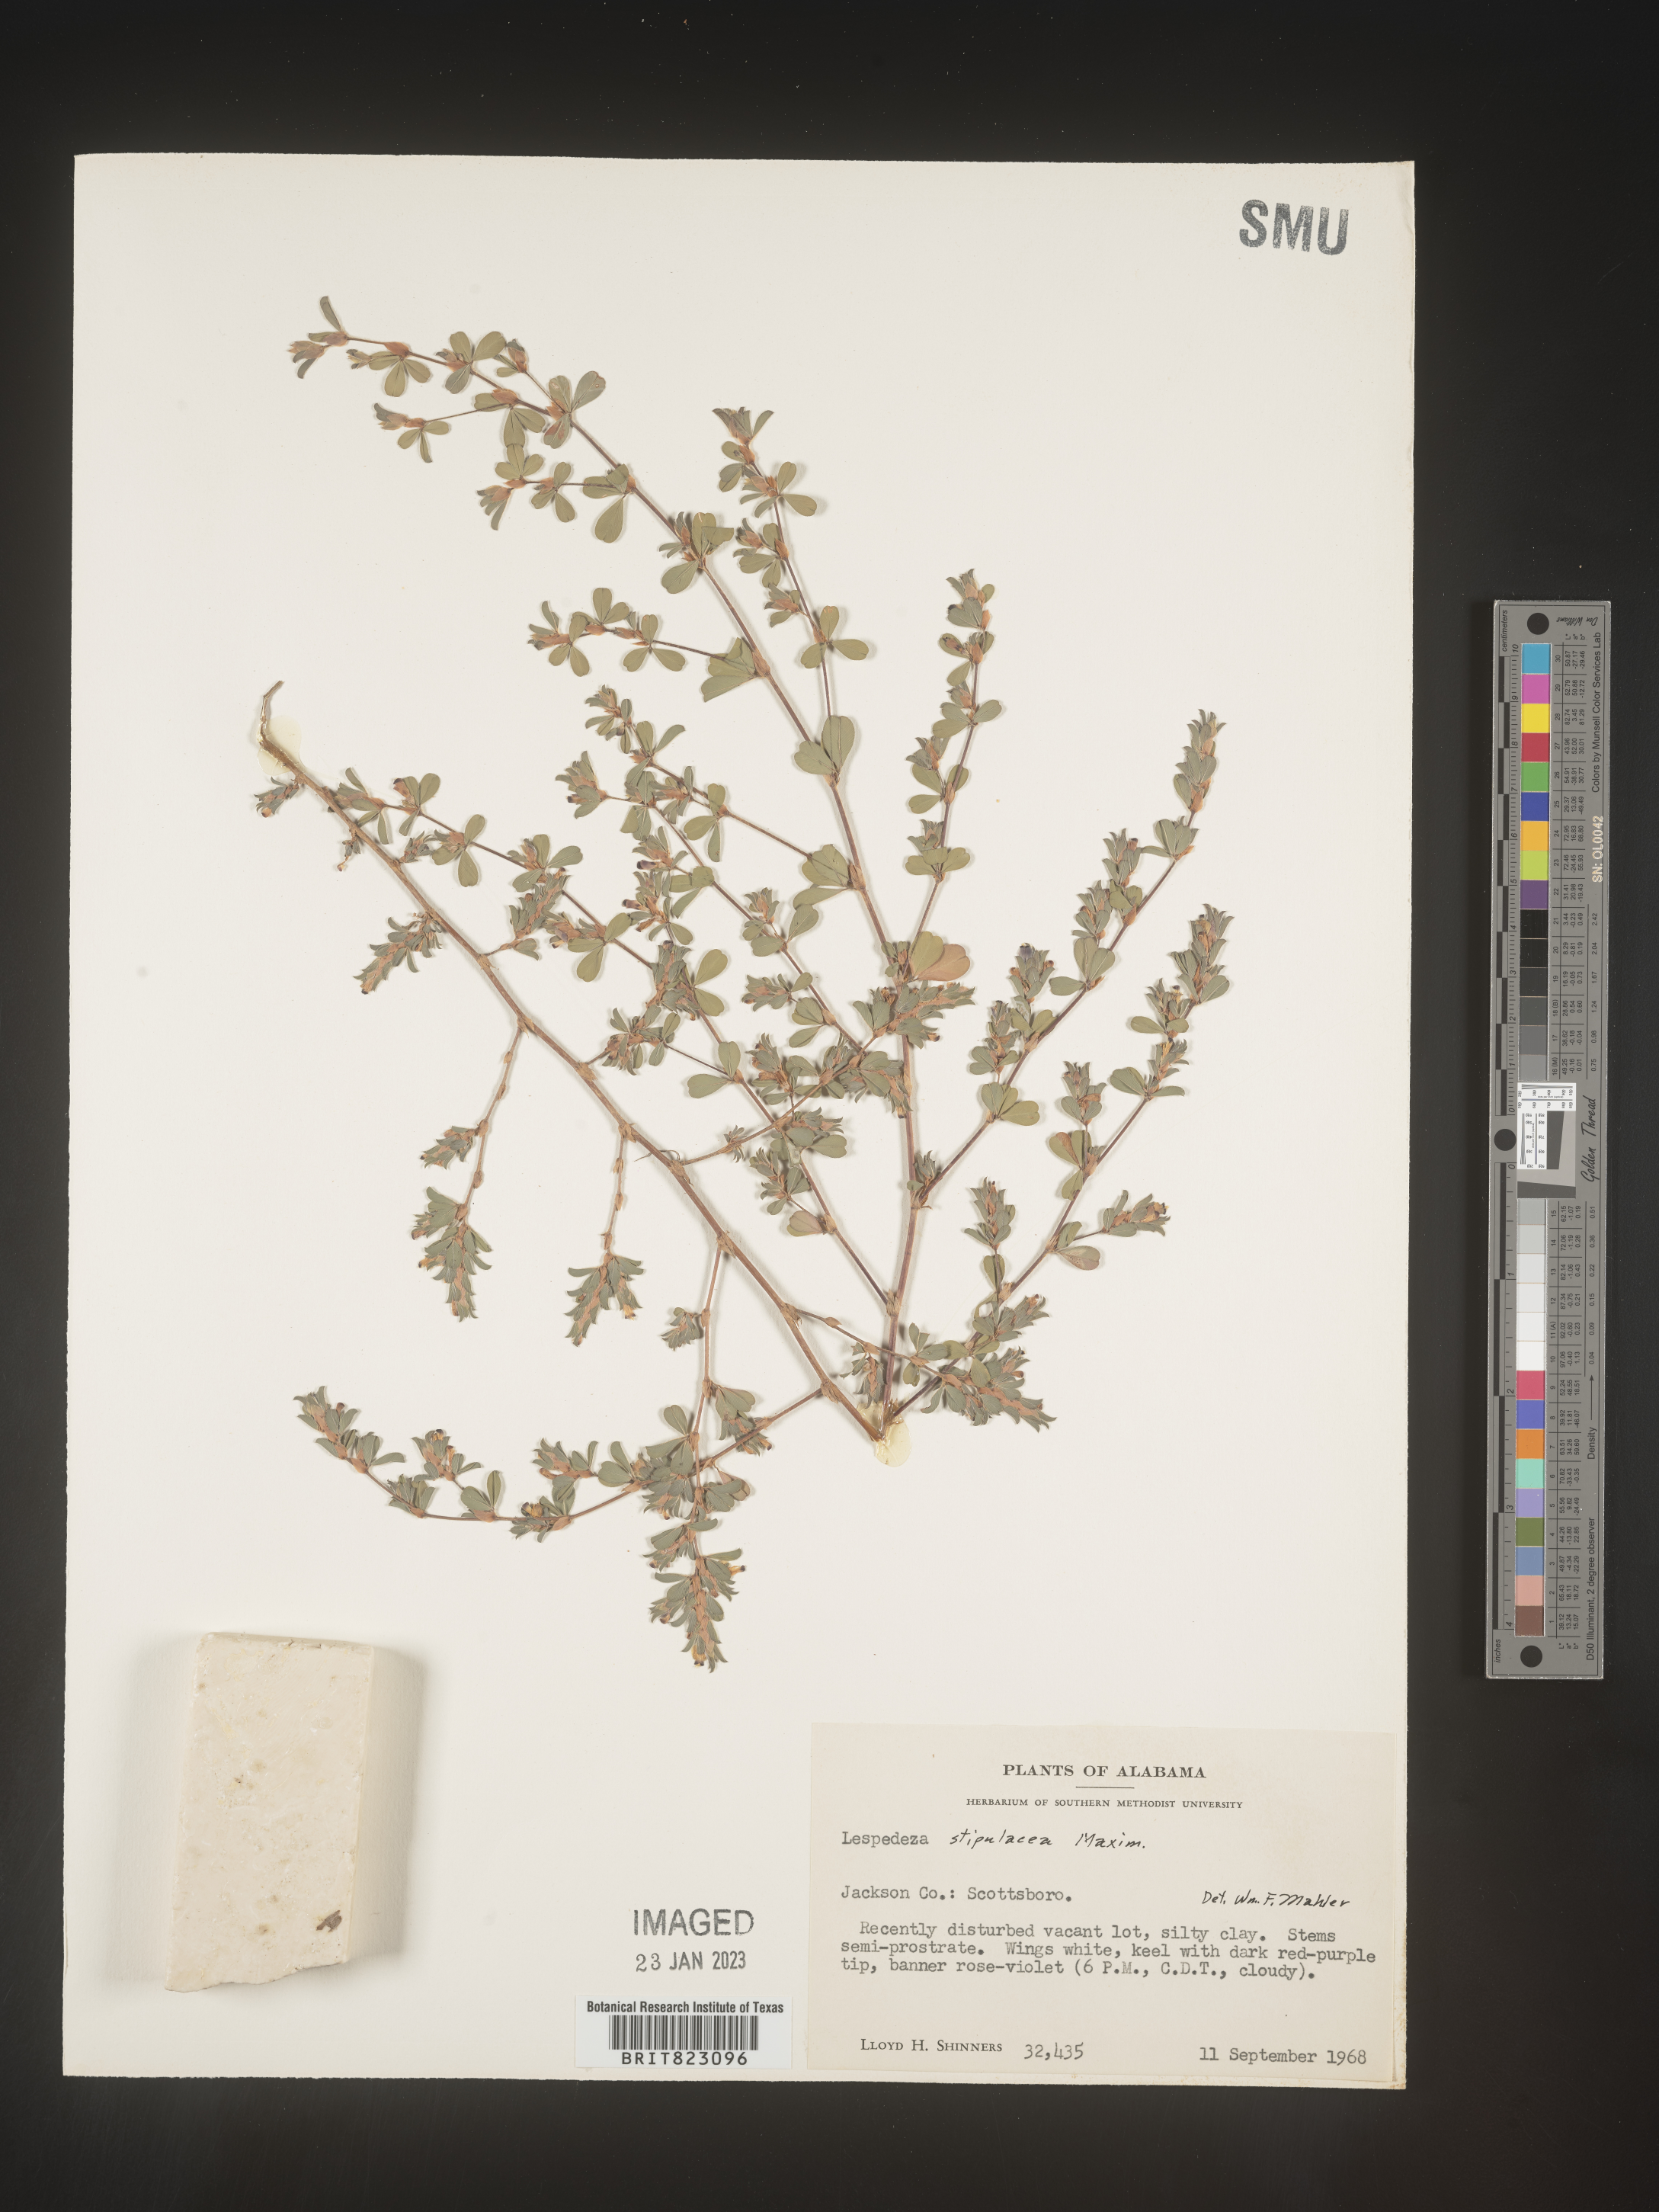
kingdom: Plantae
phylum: Tracheophyta
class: Magnoliopsida
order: Fabales
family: Fabaceae
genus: Lespedeza
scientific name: Lespedeza
